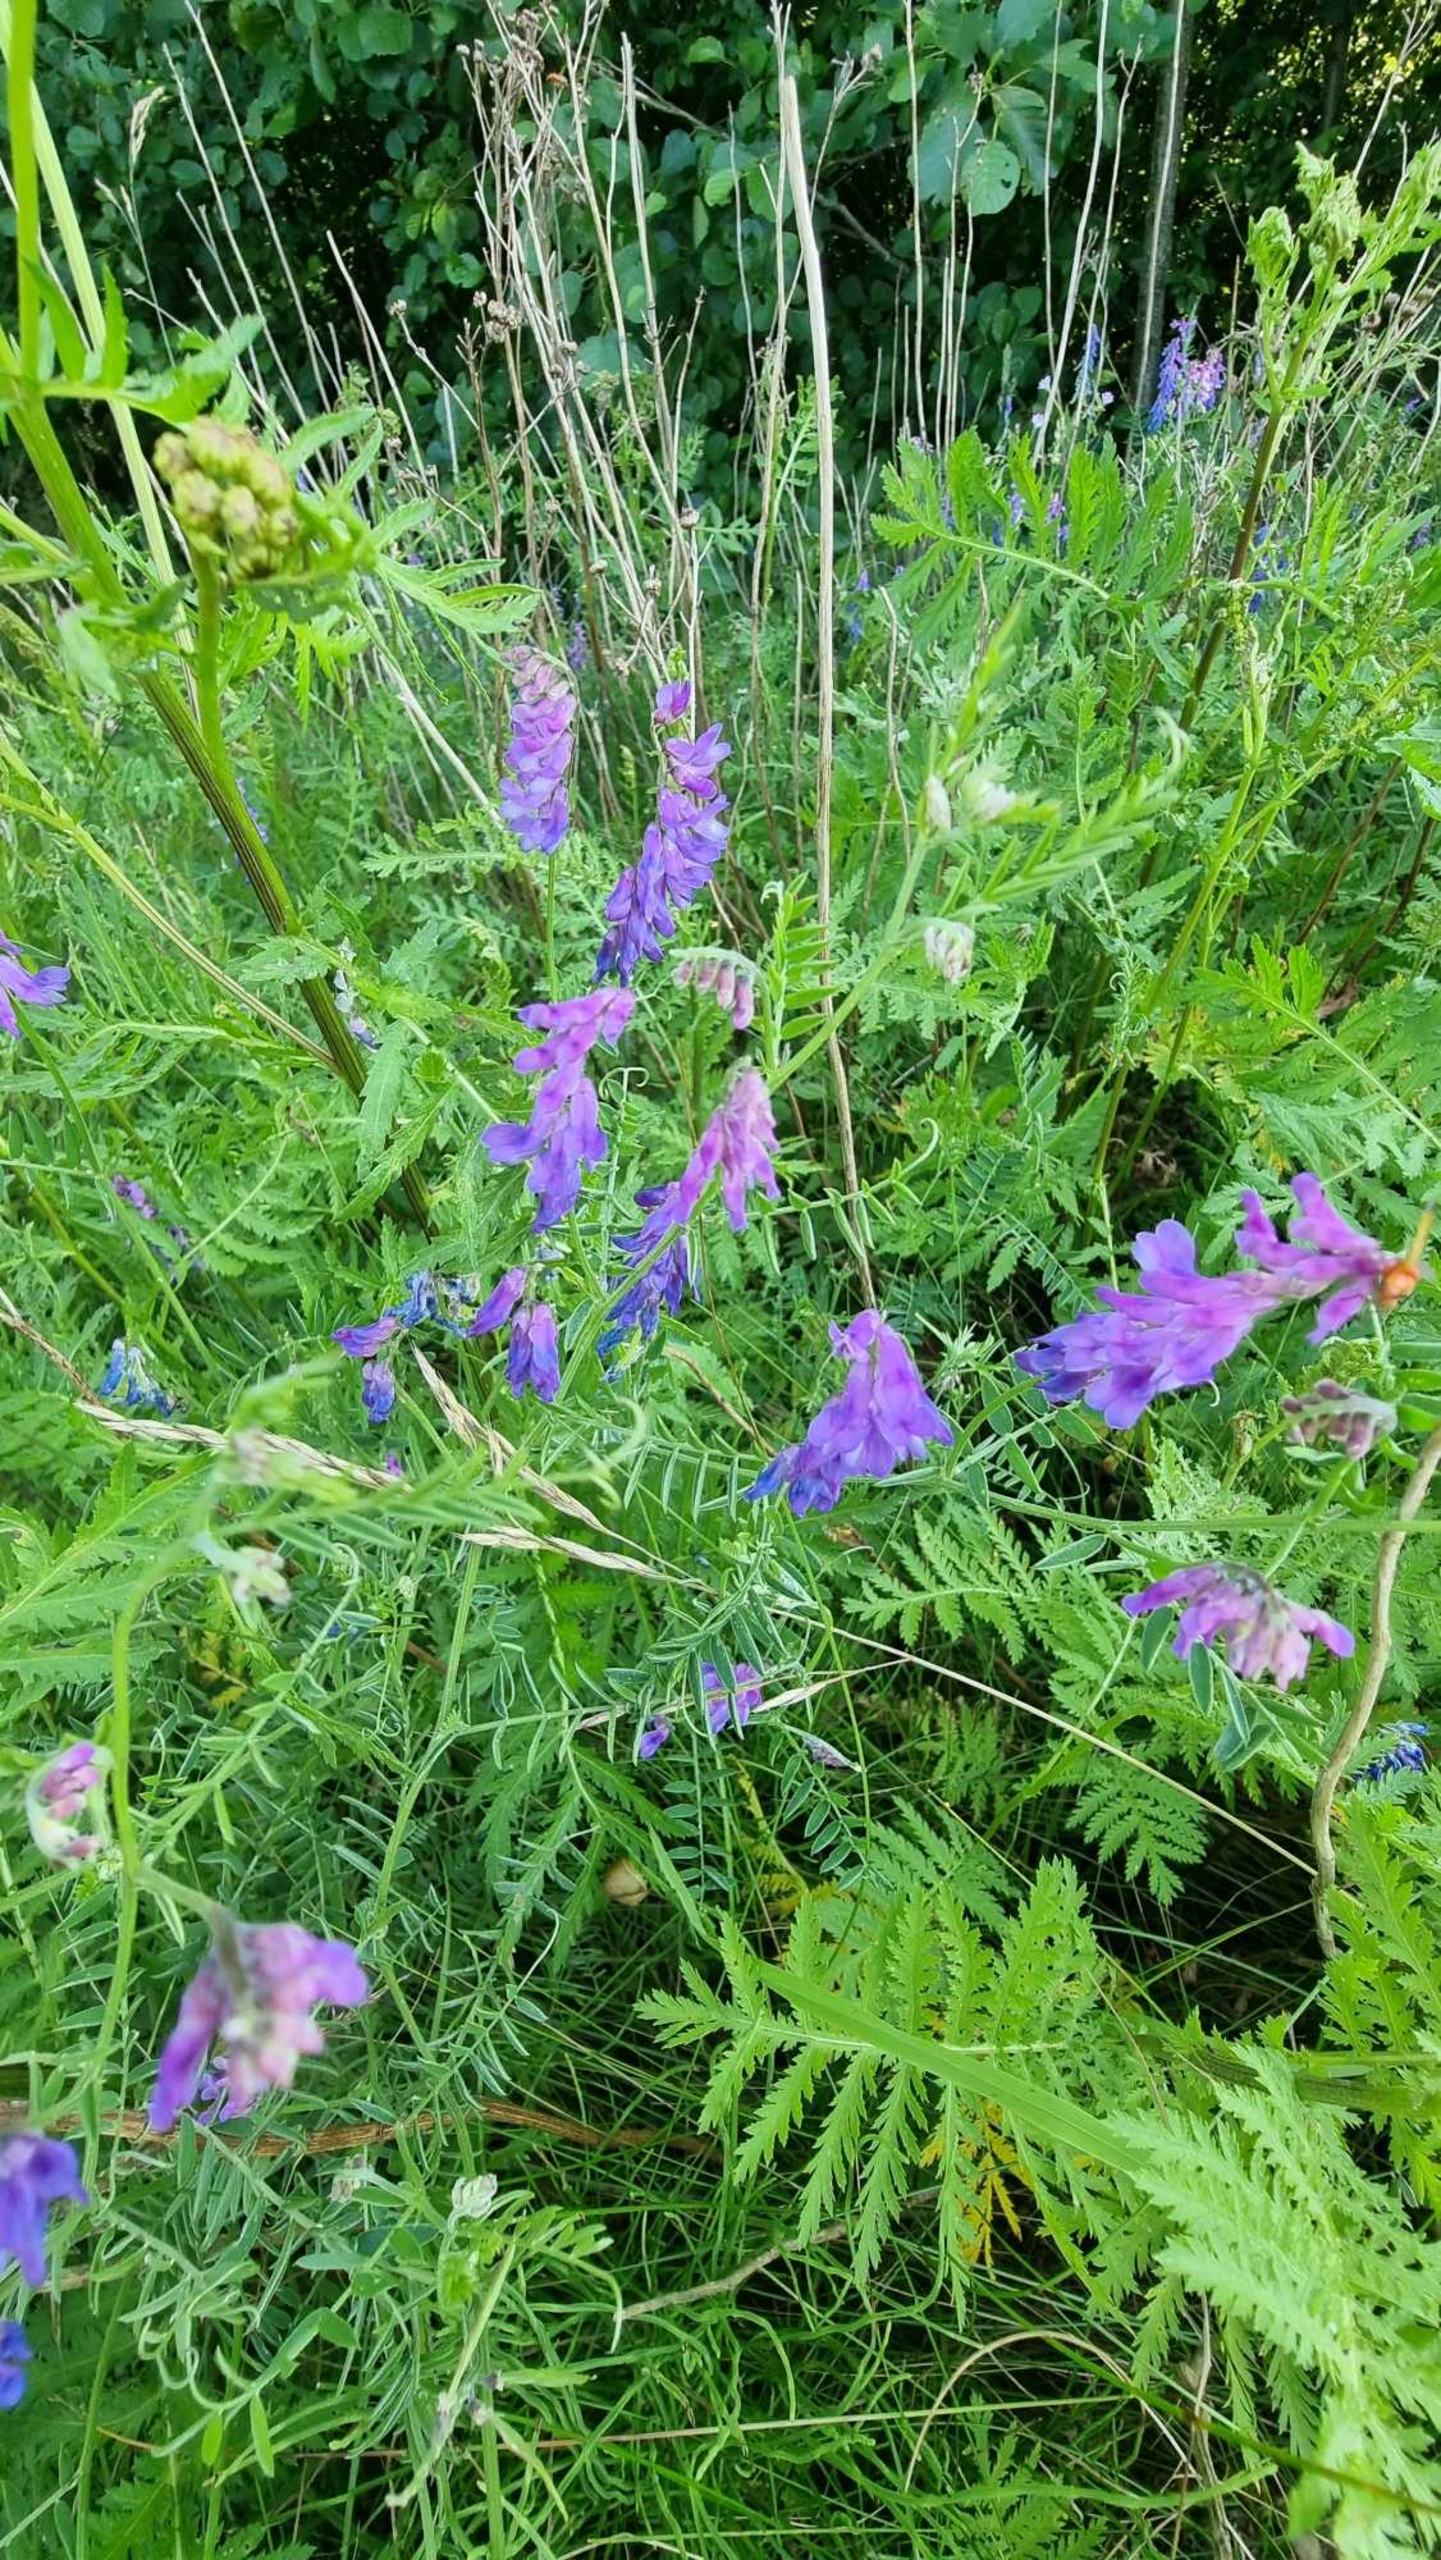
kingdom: Plantae
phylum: Tracheophyta
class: Magnoliopsida
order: Fabales
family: Fabaceae
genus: Vicia
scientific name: Vicia cracca
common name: Muse-vikke
